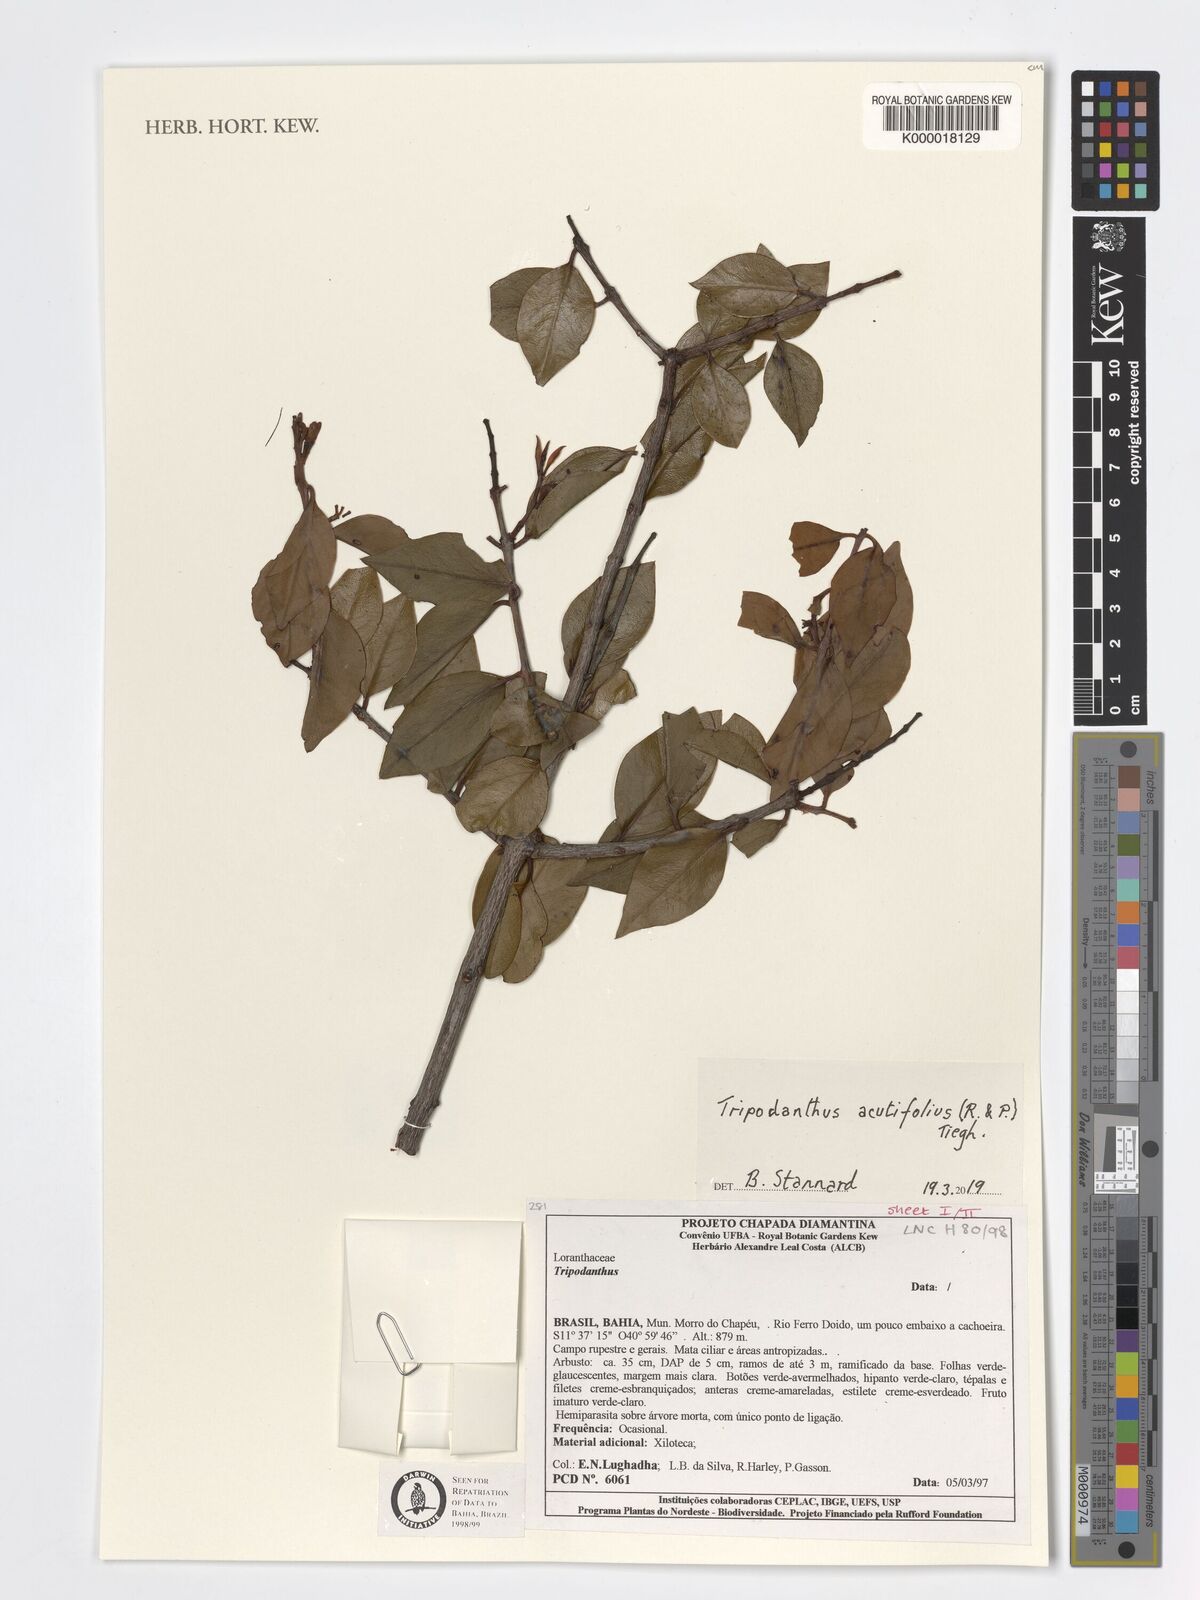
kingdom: Plantae
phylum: Tracheophyta
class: Magnoliopsida
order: Santalales
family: Loranthaceae
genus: Tripodanthus
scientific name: Tripodanthus acutifolius
